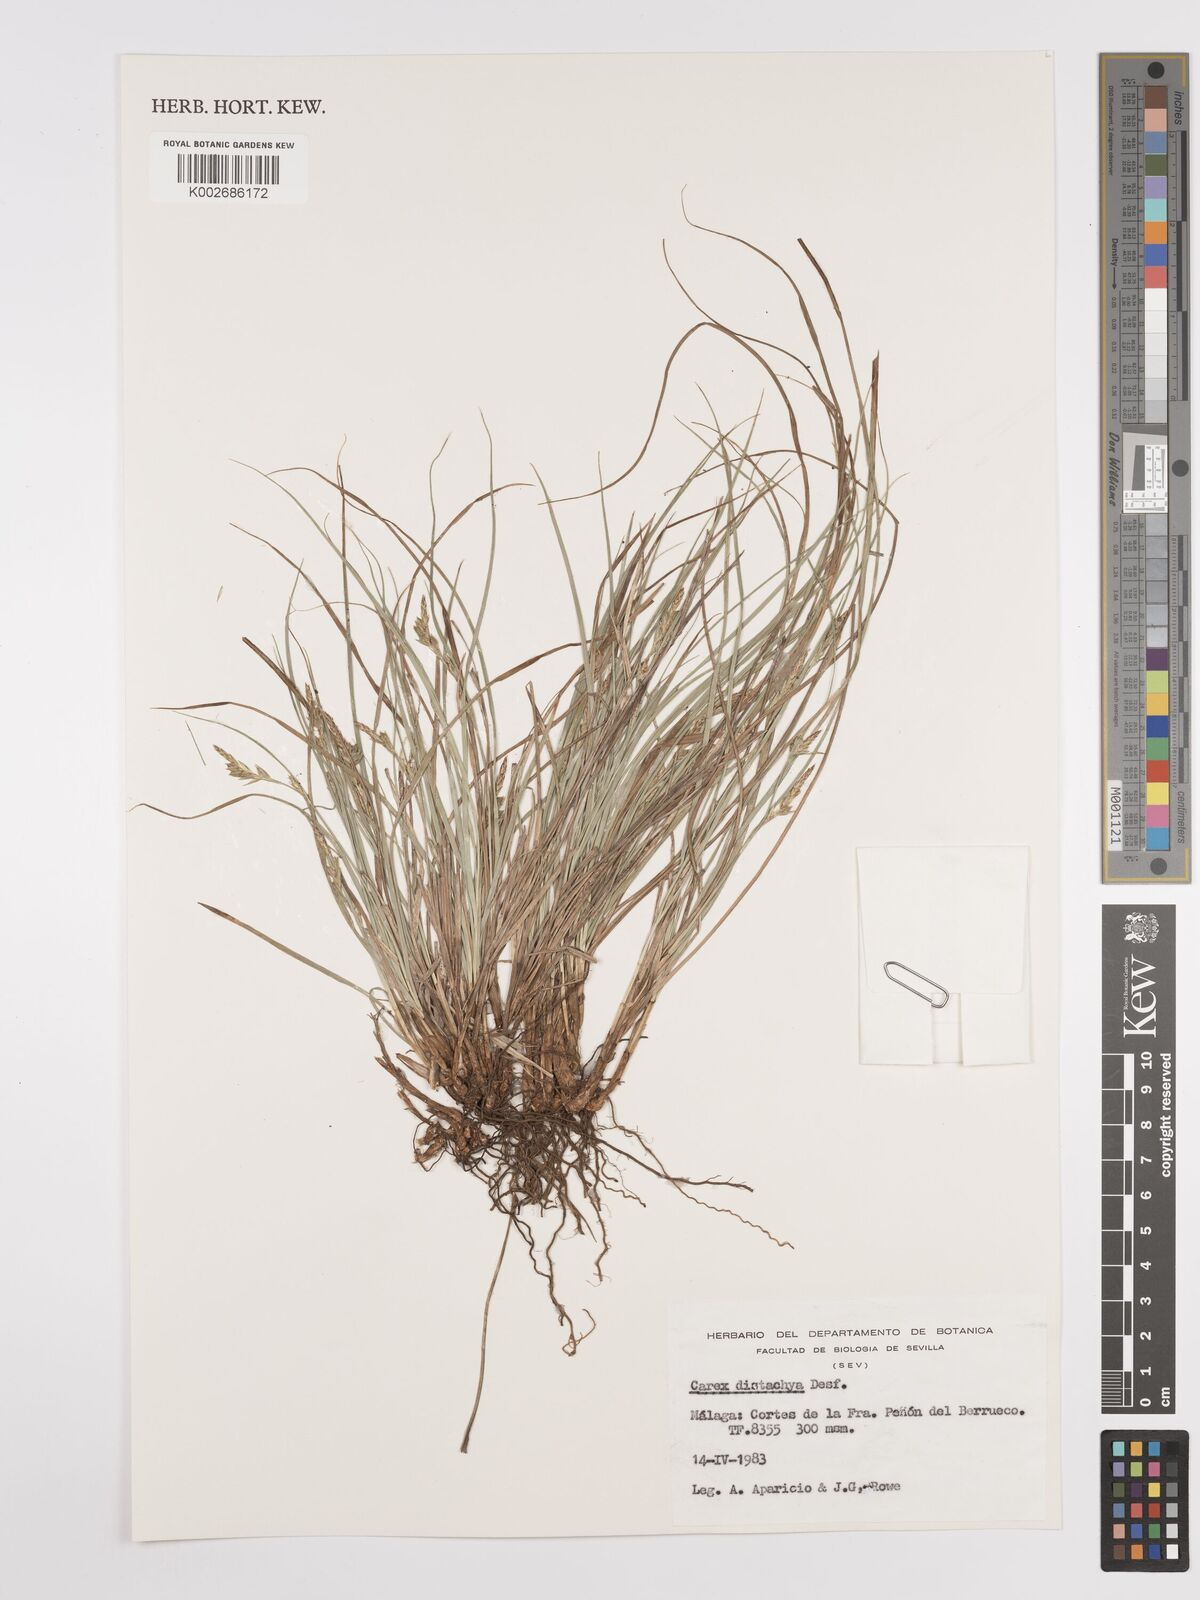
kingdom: Plantae
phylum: Tracheophyta
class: Liliopsida
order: Poales
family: Cyperaceae
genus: Carex
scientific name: Carex distachya
